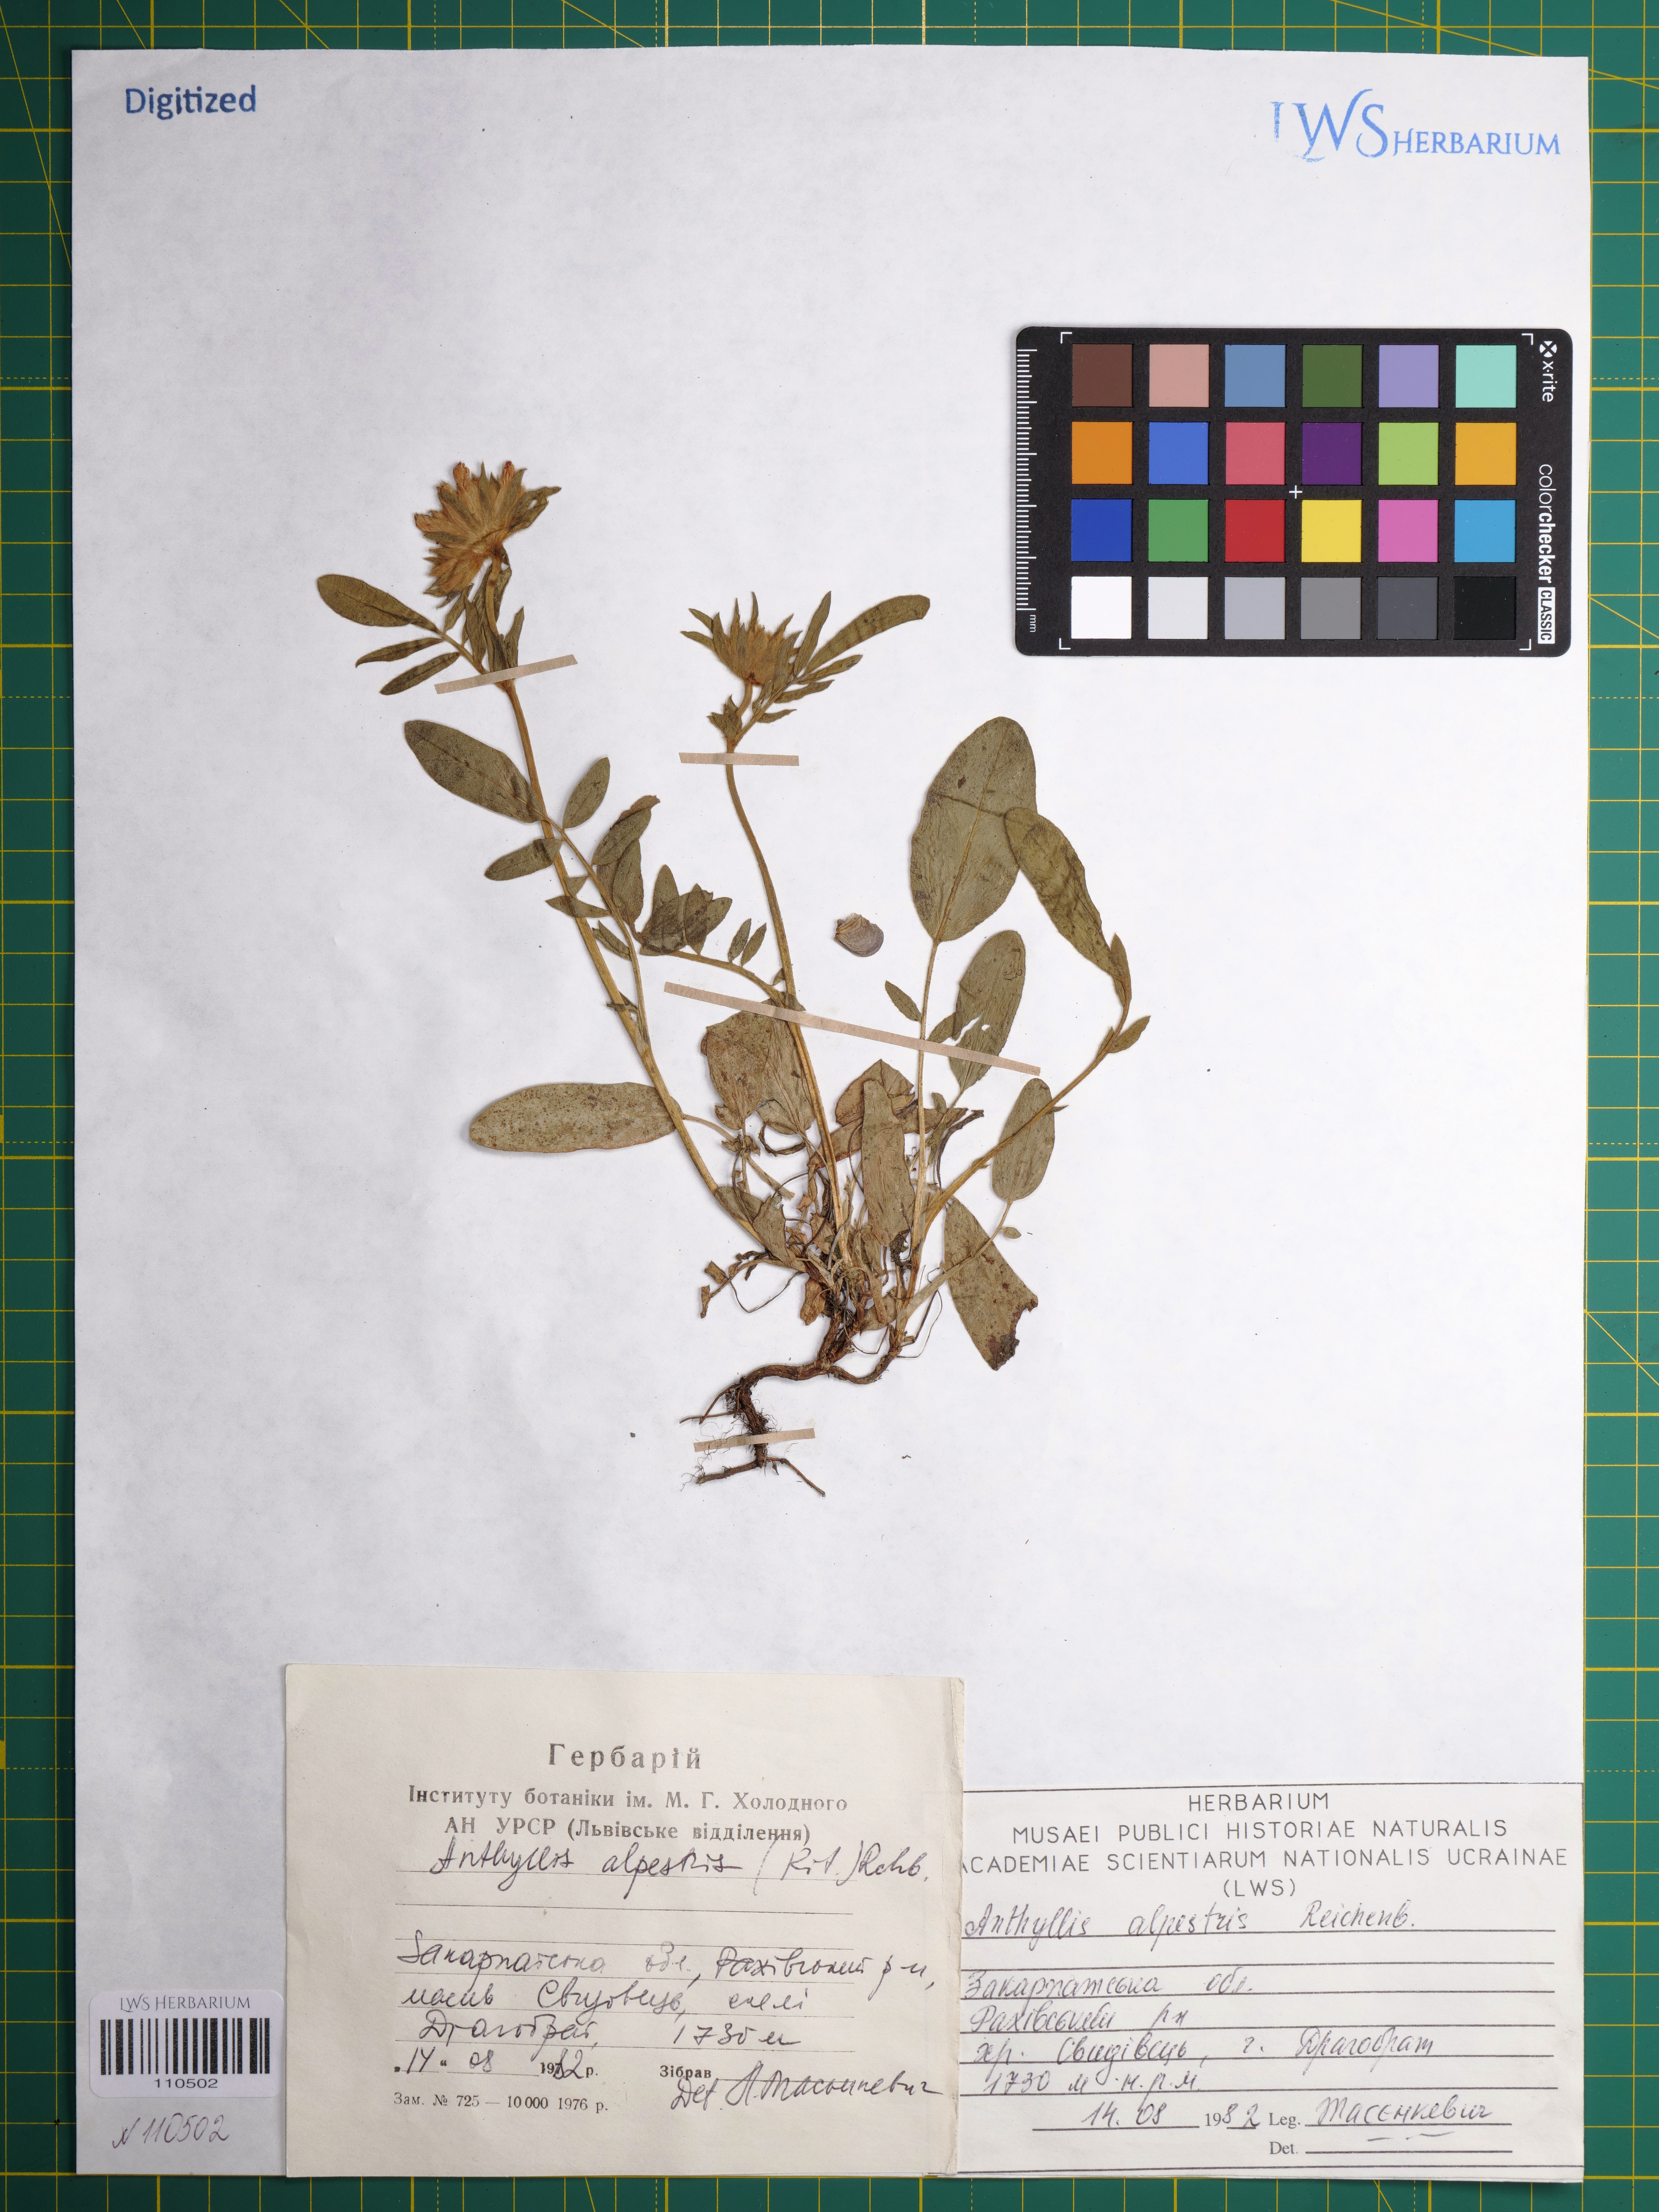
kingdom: Plantae
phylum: Tracheophyta
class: Magnoliopsida
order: Fabales
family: Fabaceae
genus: Anthyllis
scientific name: Anthyllis vulneraria
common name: Kidney vetch
